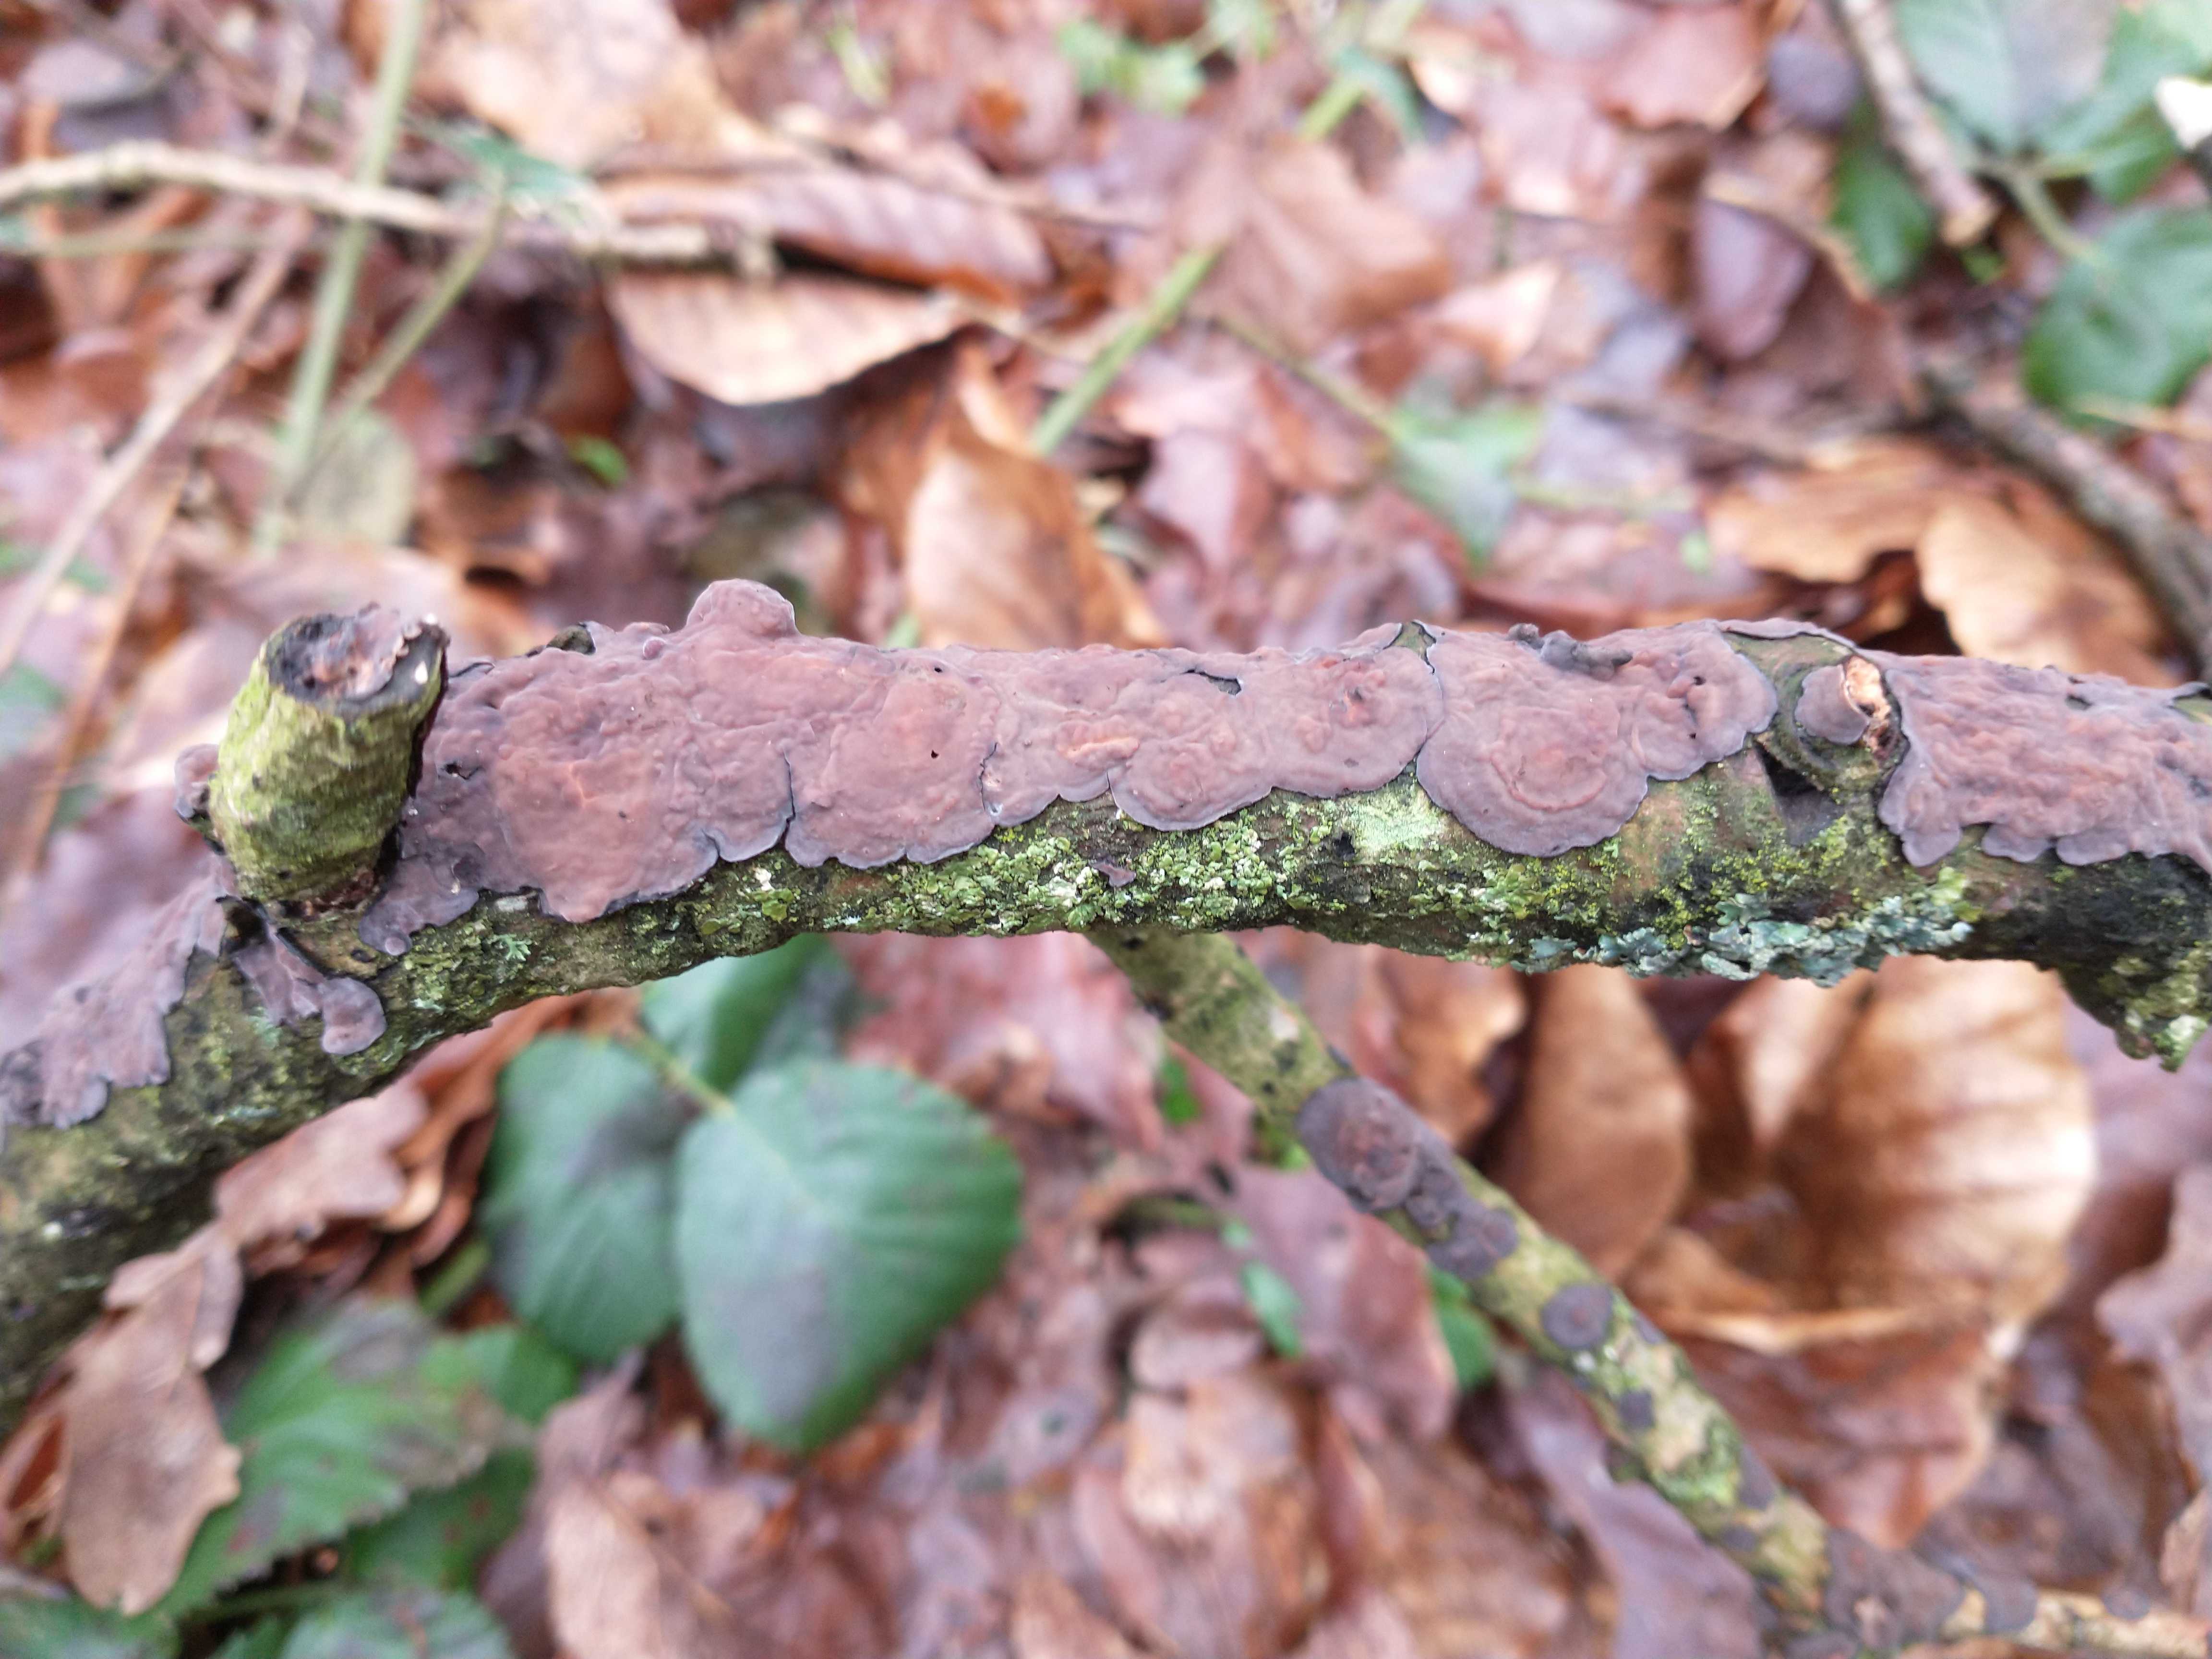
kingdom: Fungi
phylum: Basidiomycota
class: Agaricomycetes
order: Russulales
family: Peniophoraceae
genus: Peniophora
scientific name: Peniophora quercina
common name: ege-voksskind
